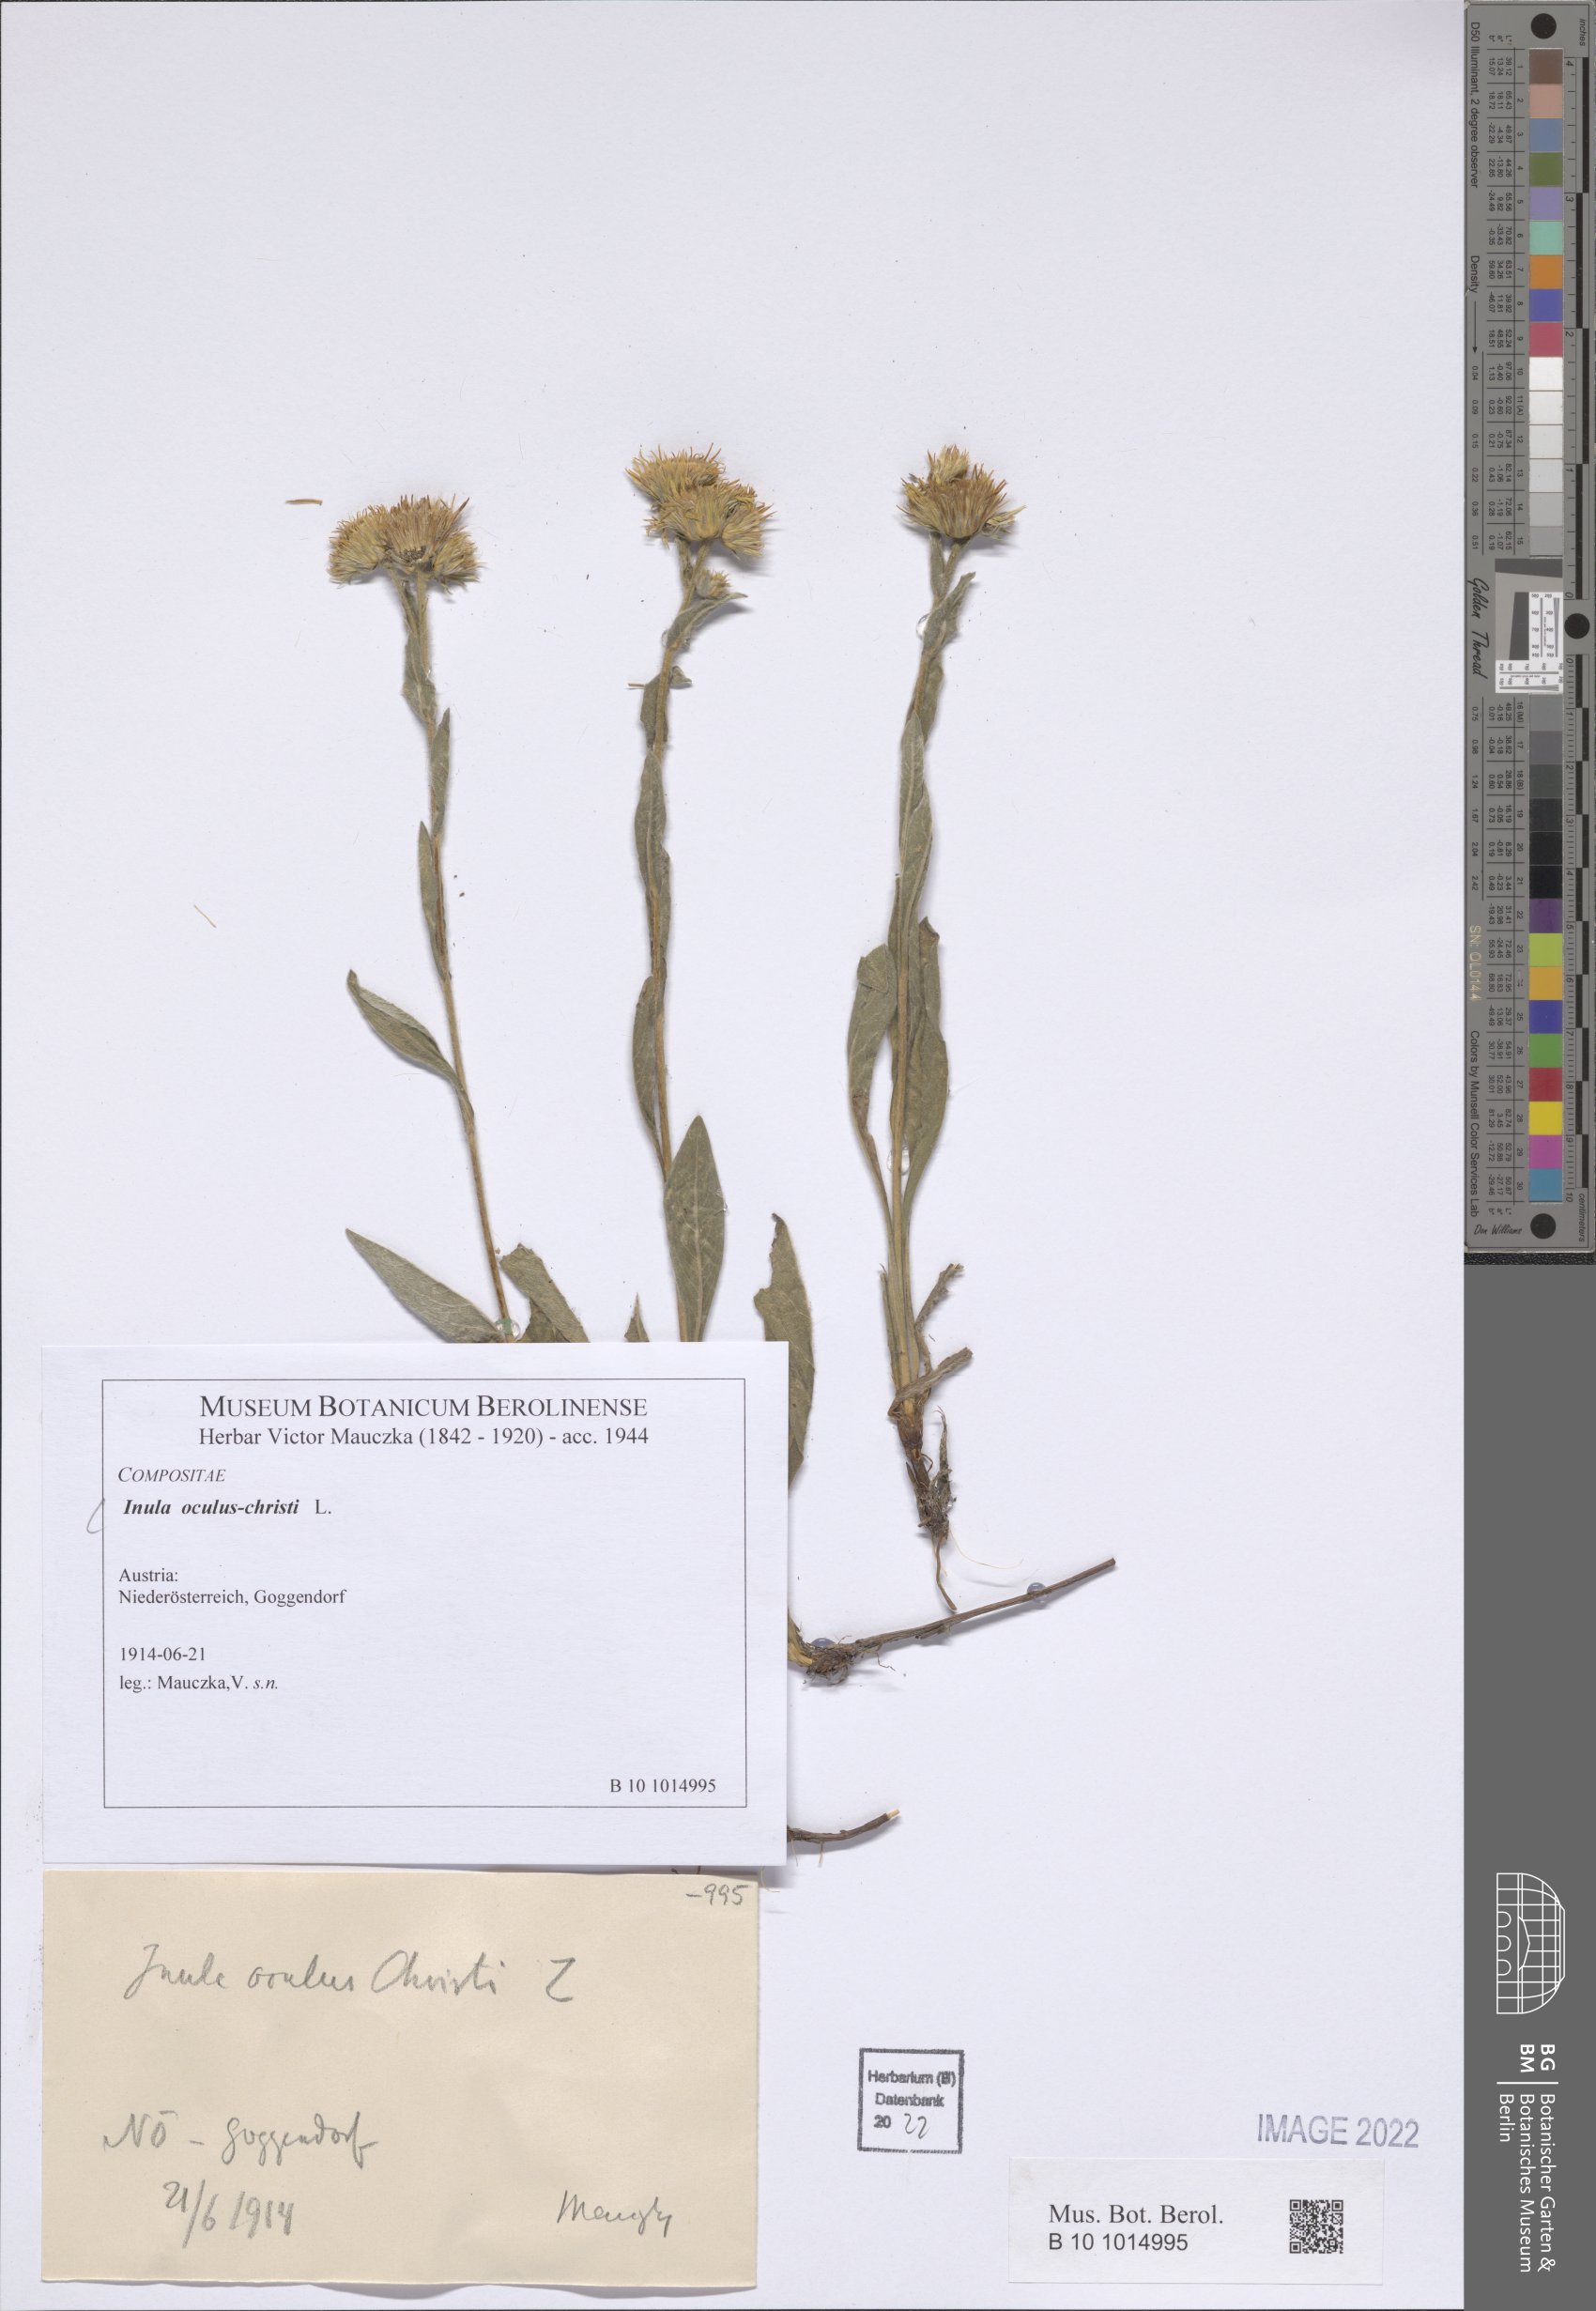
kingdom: Plantae
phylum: Tracheophyta
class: Magnoliopsida
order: Asterales
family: Asteraceae
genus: Pentanema
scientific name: Pentanema oculus-christi
